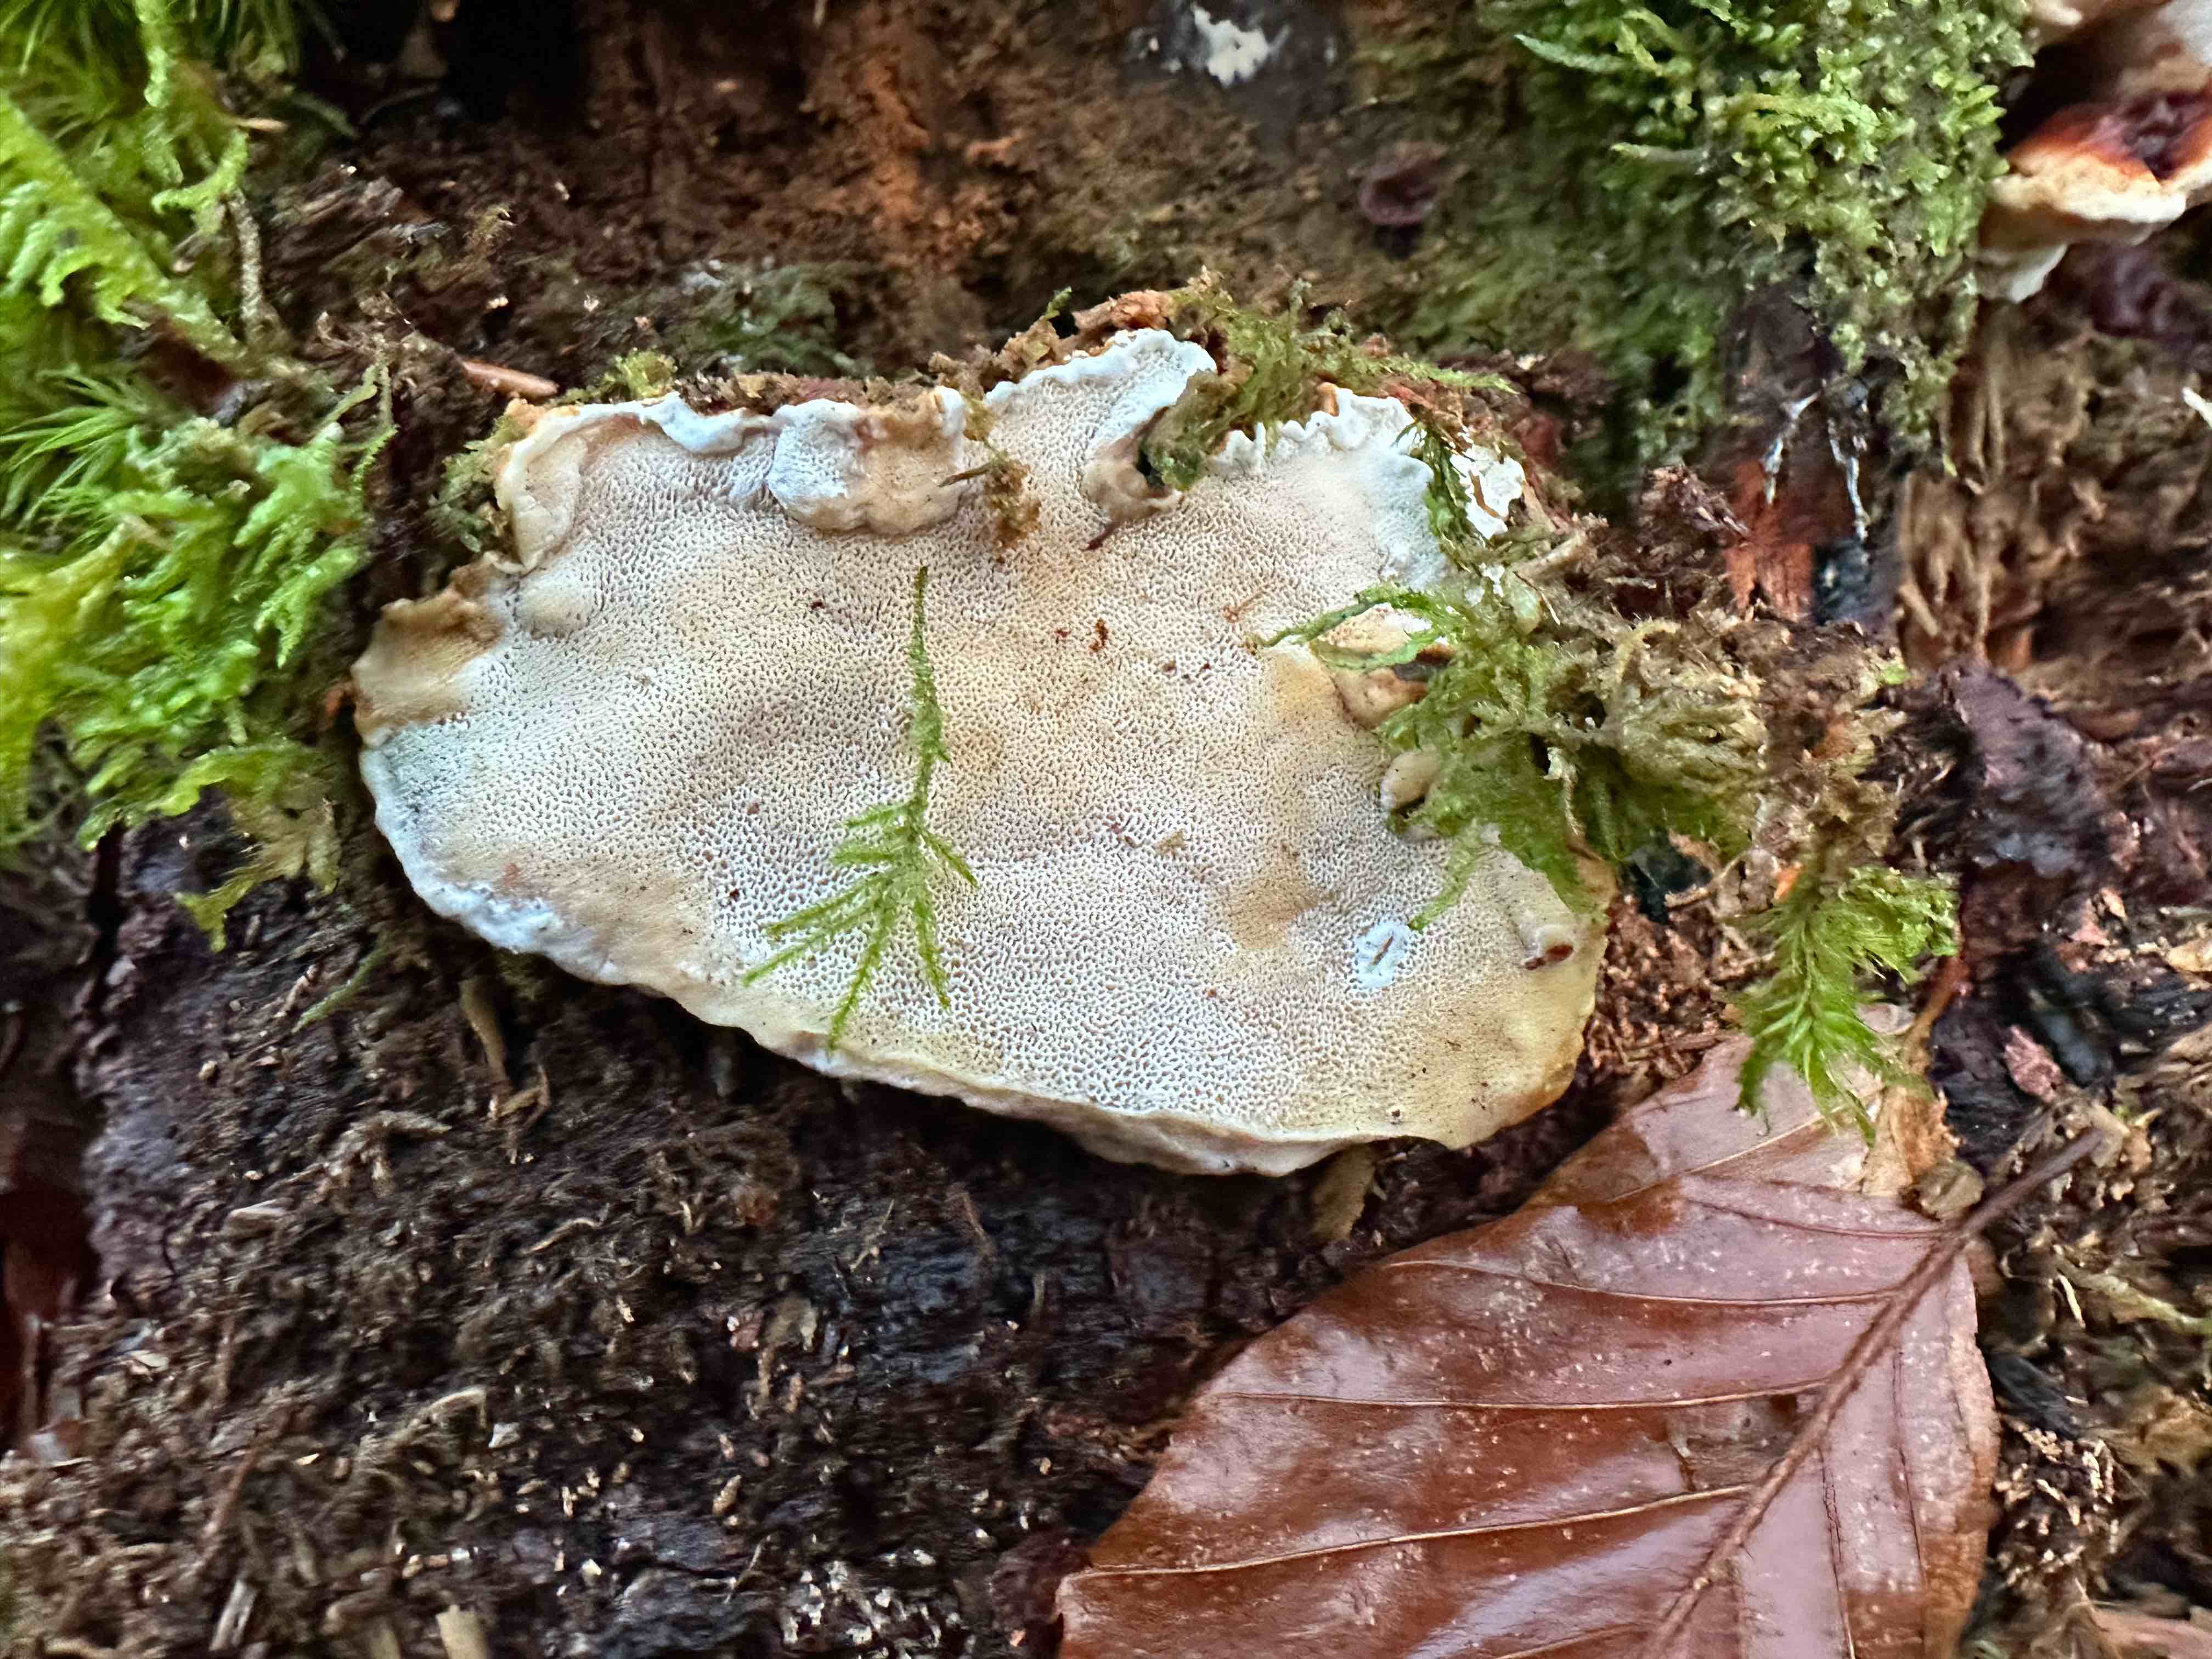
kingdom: Fungi
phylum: Basidiomycota
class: Agaricomycetes
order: Russulales
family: Bondarzewiaceae
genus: Heterobasidion
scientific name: Heterobasidion annosum
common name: almindelig rodfordærver
